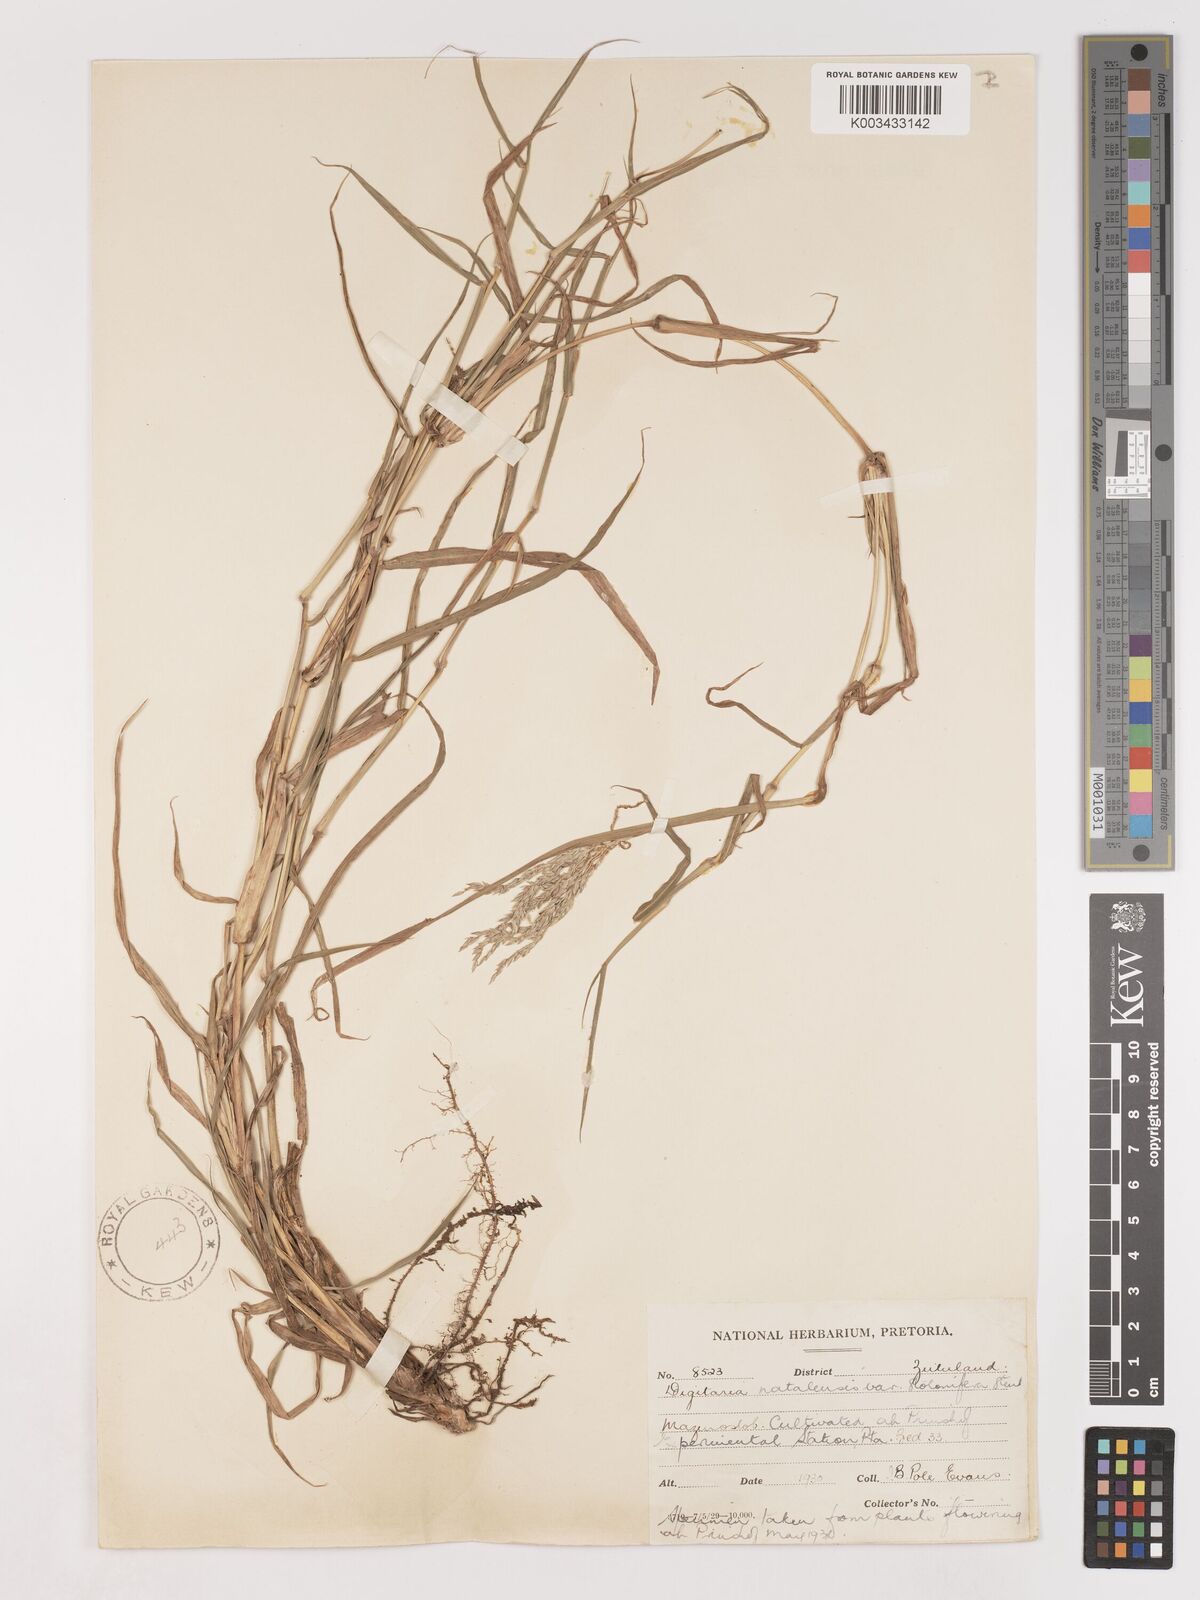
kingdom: Plantae
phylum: Tracheophyta
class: Liliopsida
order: Poales
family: Poaceae
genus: Digitaria
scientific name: Digitaria natalensis
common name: Coast finger grass
